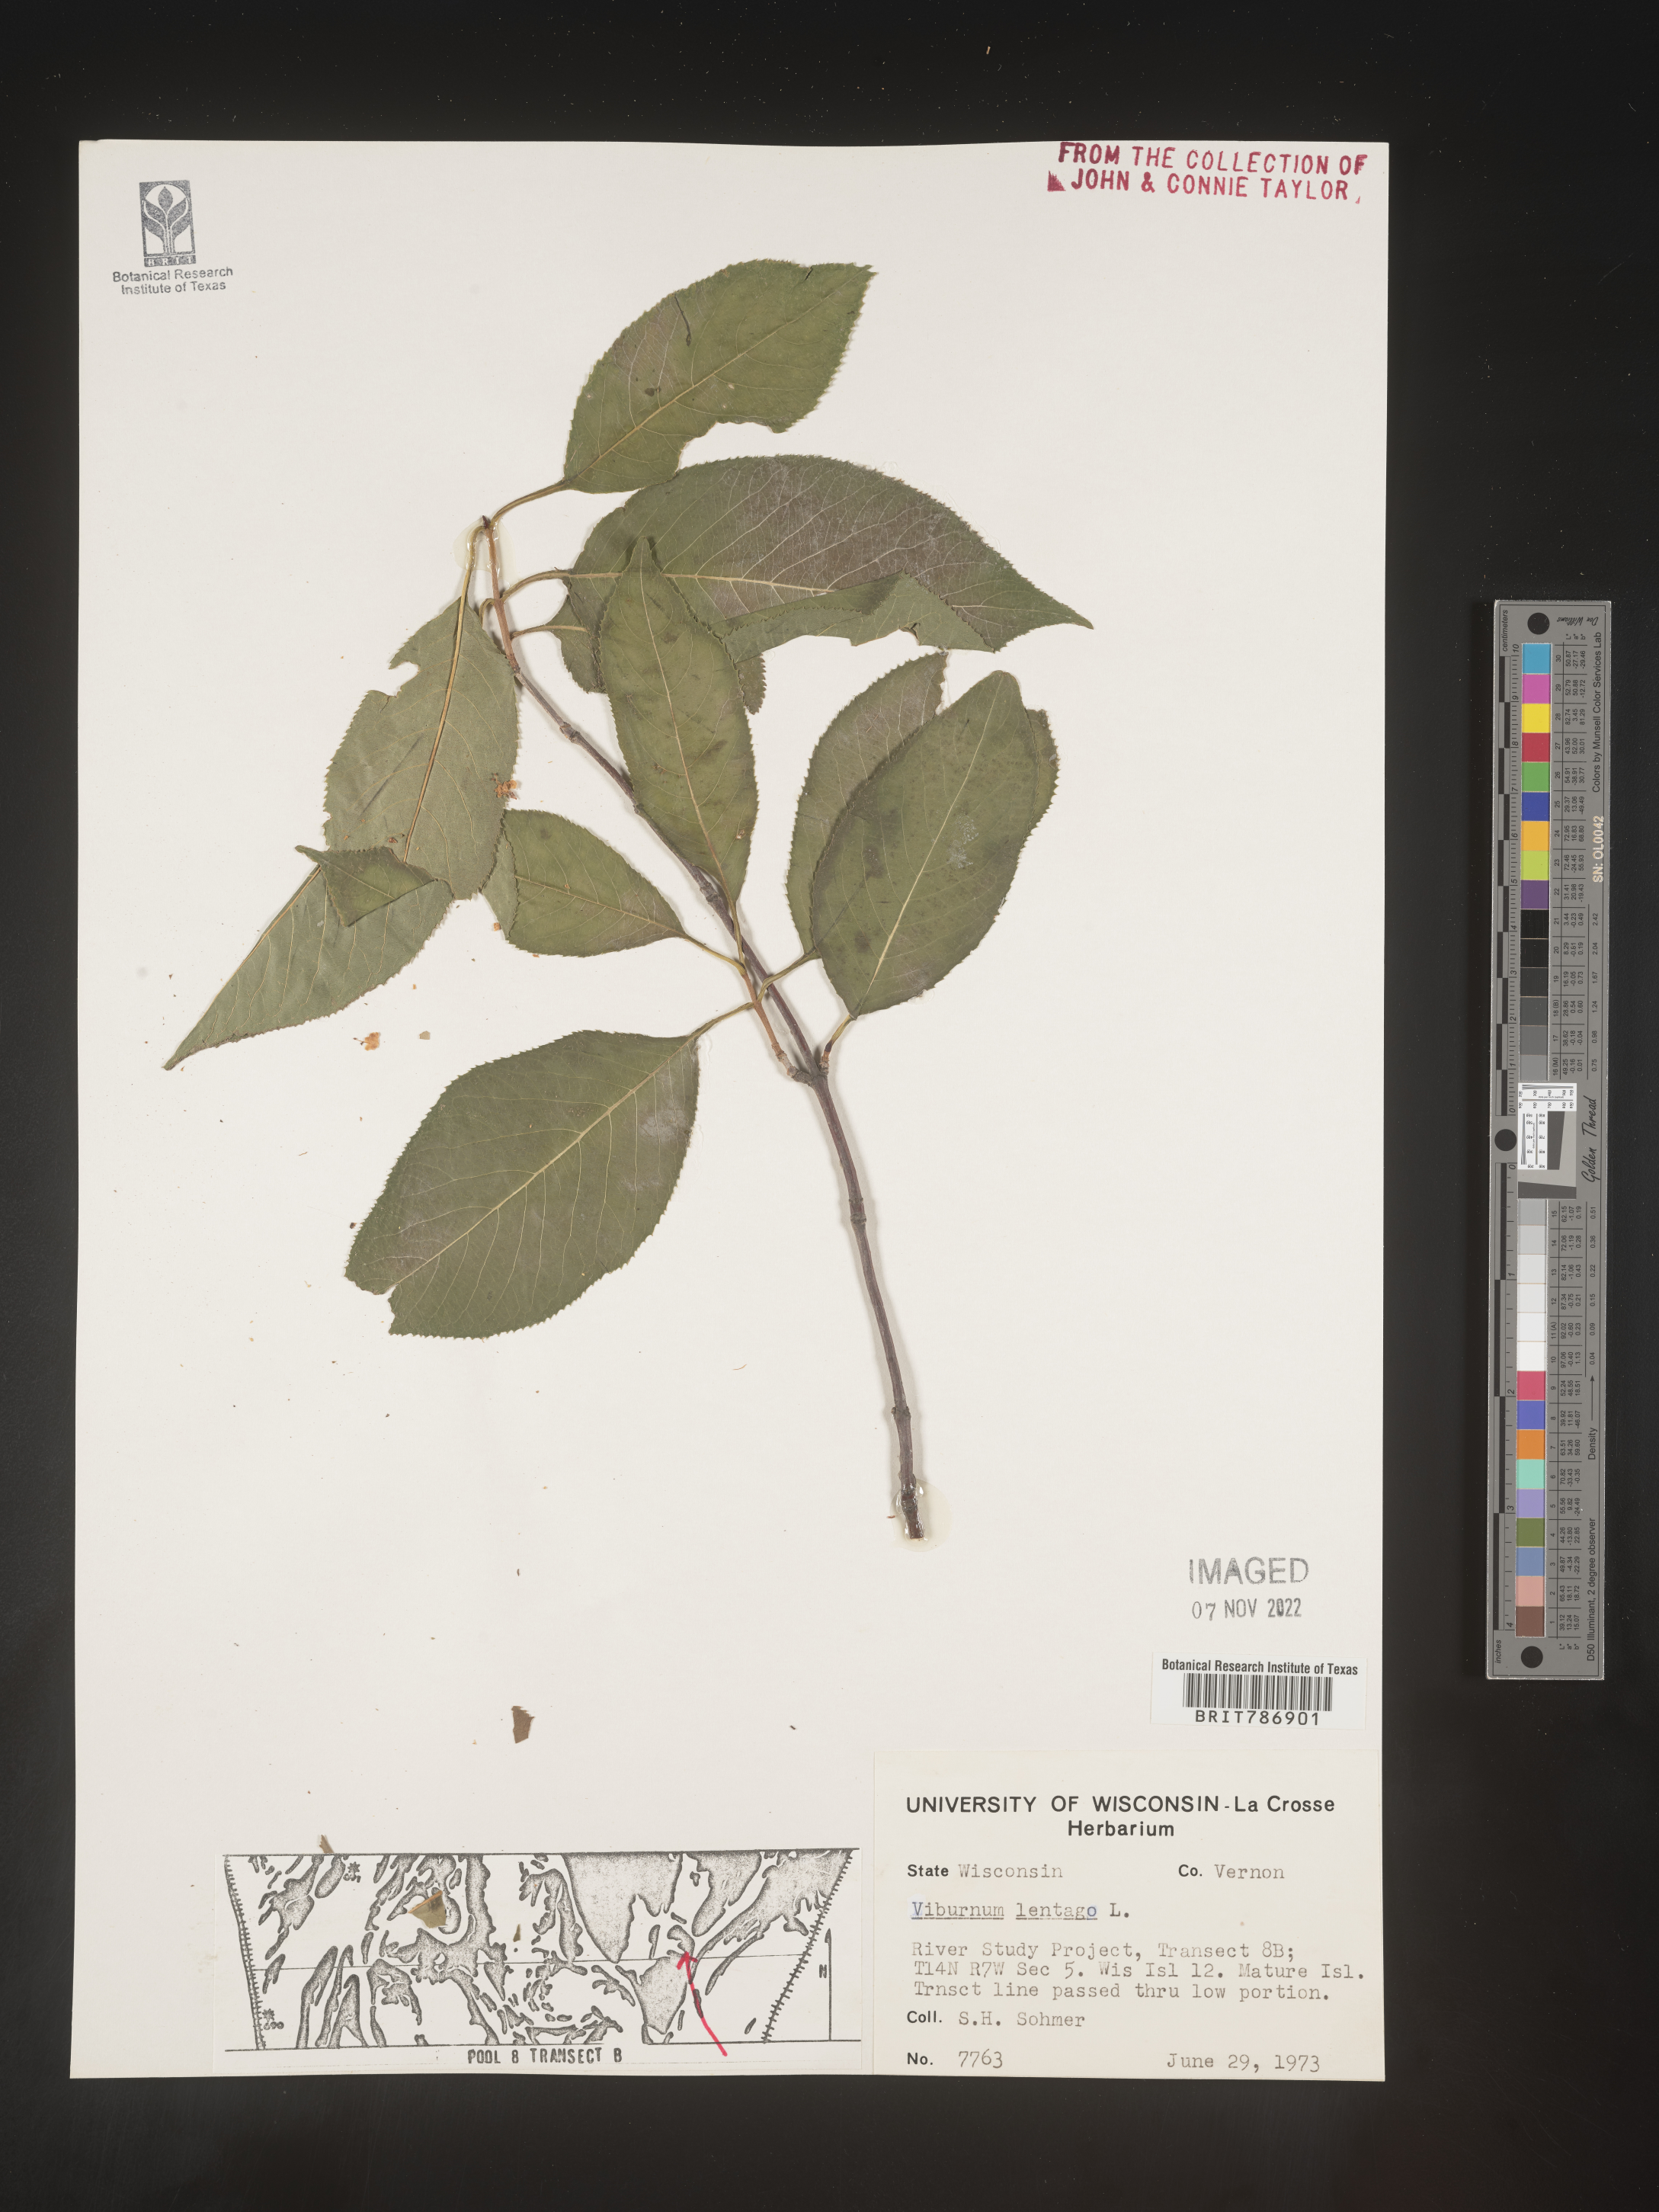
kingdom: Plantae
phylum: Tracheophyta
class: Magnoliopsida
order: Dipsacales
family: Viburnaceae
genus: Viburnum
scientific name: Viburnum lentago
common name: Black haw
